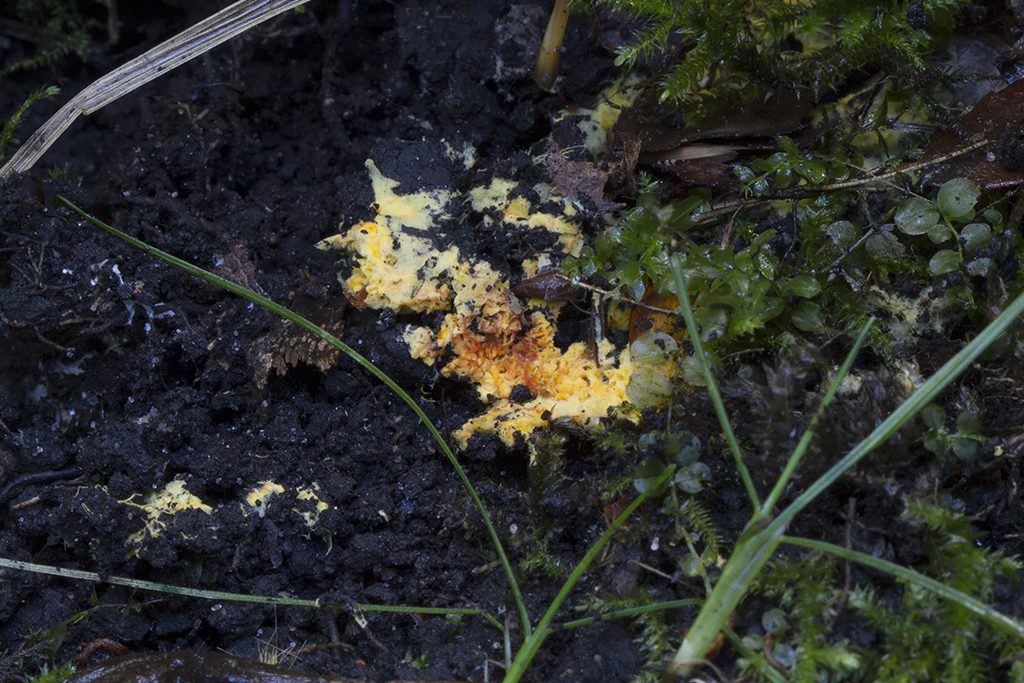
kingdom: Fungi
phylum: Basidiomycota
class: Agaricomycetes
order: Agaricales
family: Stephanosporaceae
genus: Lindtneria
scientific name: Lindtneria trachyspora
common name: labyrint-citrushinde
